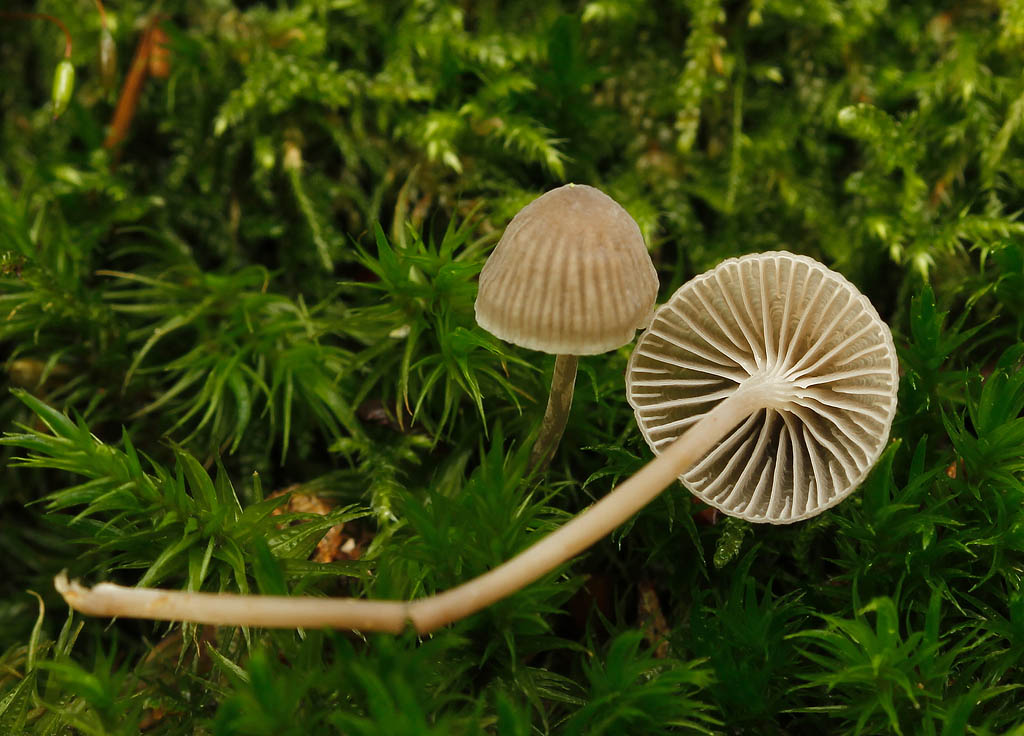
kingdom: Fungi
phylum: Basidiomycota
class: Agaricomycetes
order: Agaricales
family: Mycenaceae
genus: Mycena
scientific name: Mycena cinerella
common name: mel-huesvamp
